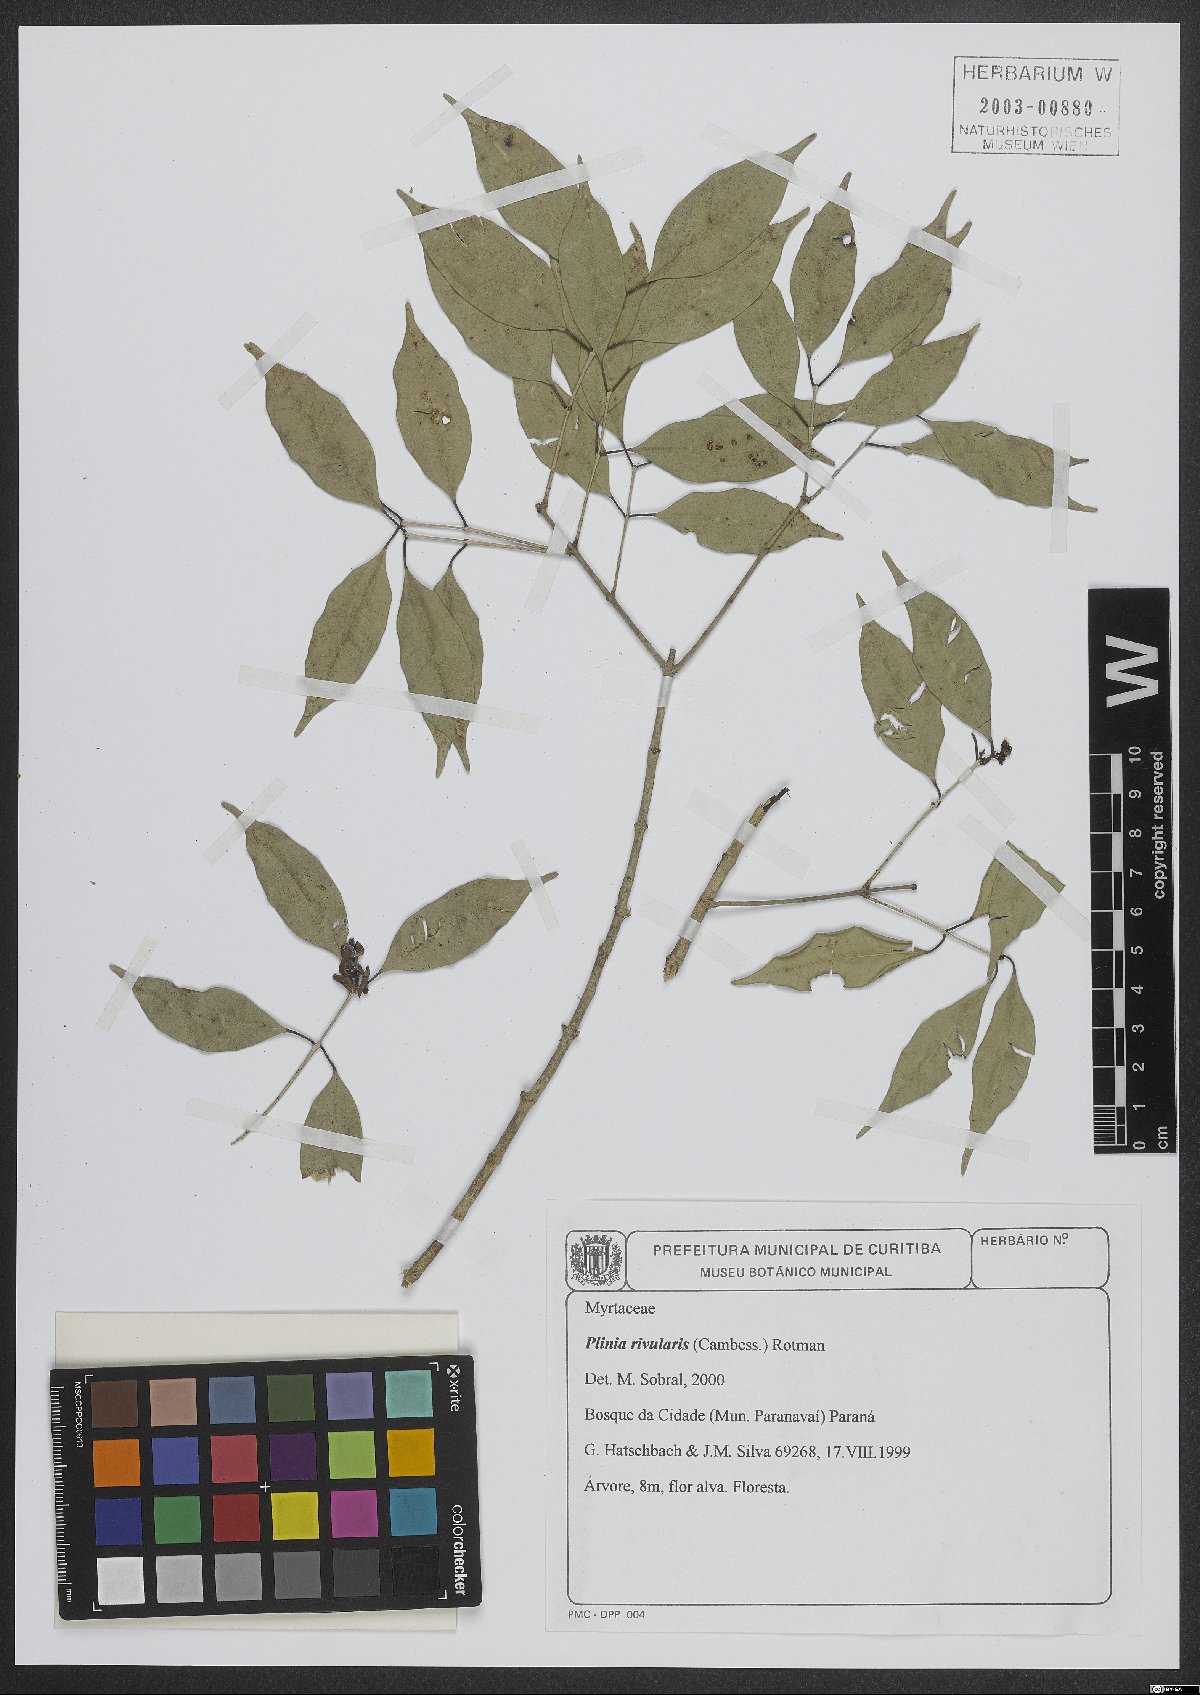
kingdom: Plantae
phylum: Tracheophyta
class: Magnoliopsida
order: Myrtales
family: Myrtaceae
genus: Plinia
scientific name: Plinia rivularis
